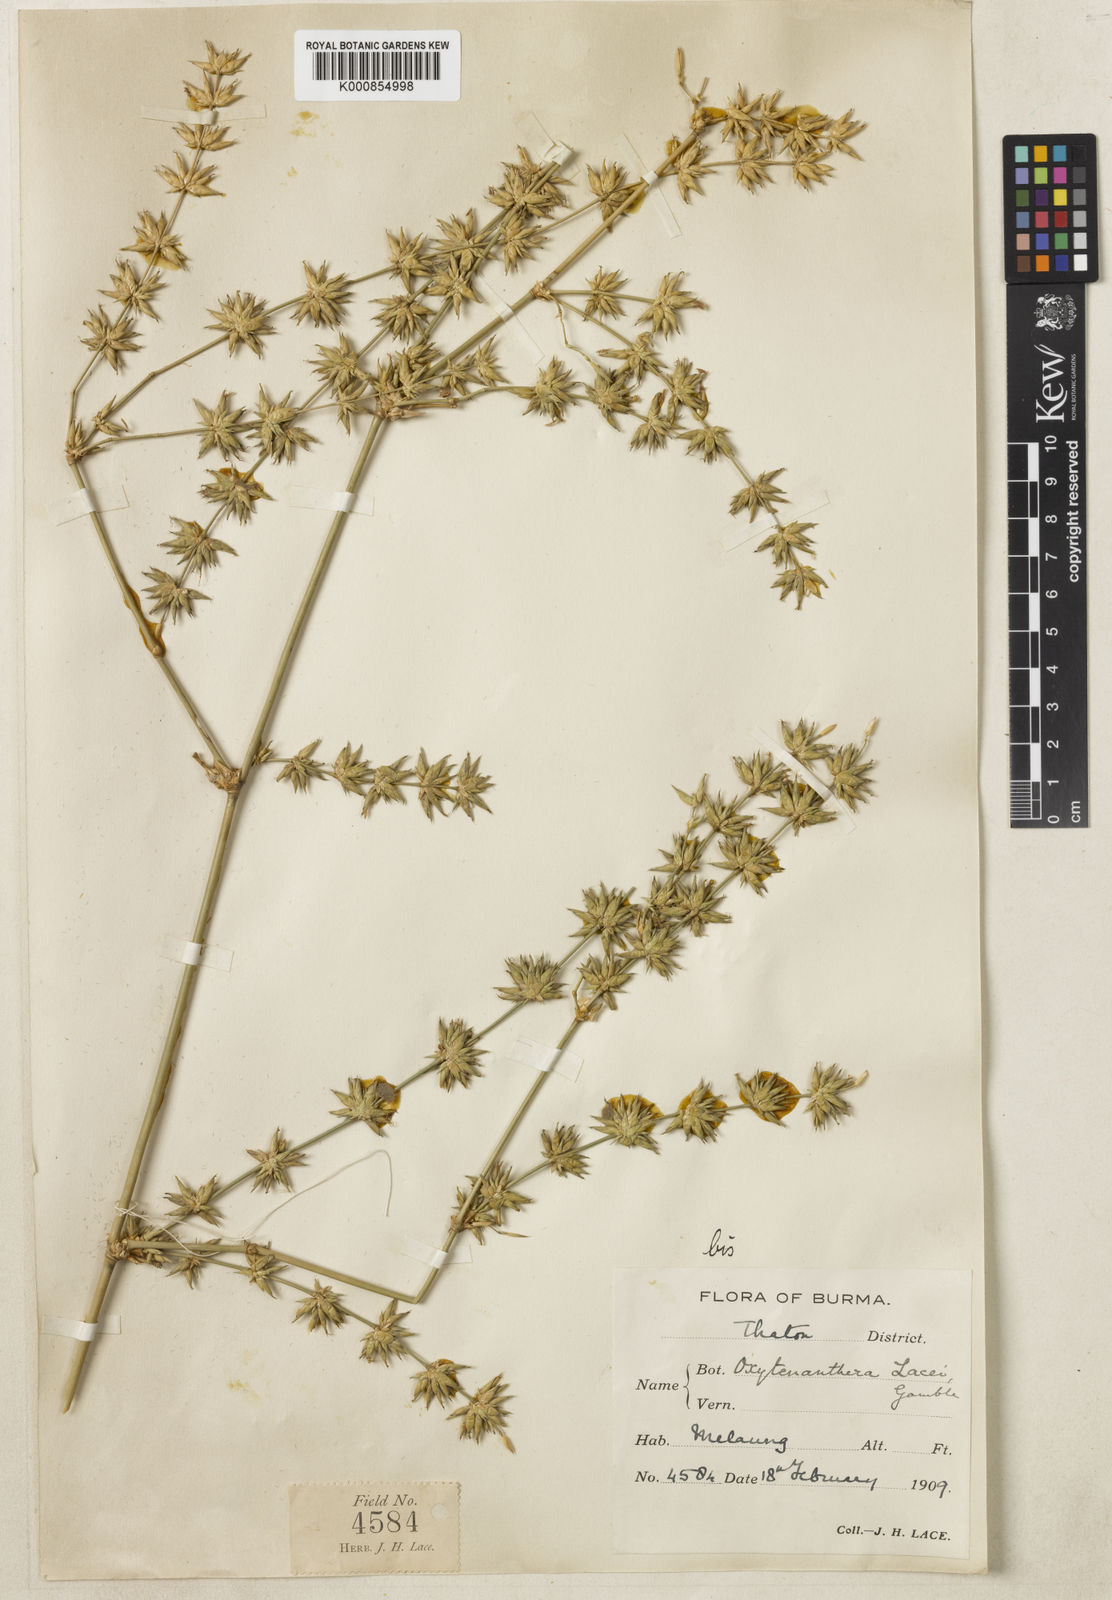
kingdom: Plantae
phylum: Tracheophyta
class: Liliopsida
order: Poales
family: Poaceae
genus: Dendrocalamus
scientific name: Dendrocalamus membranaceus
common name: White bamboo
